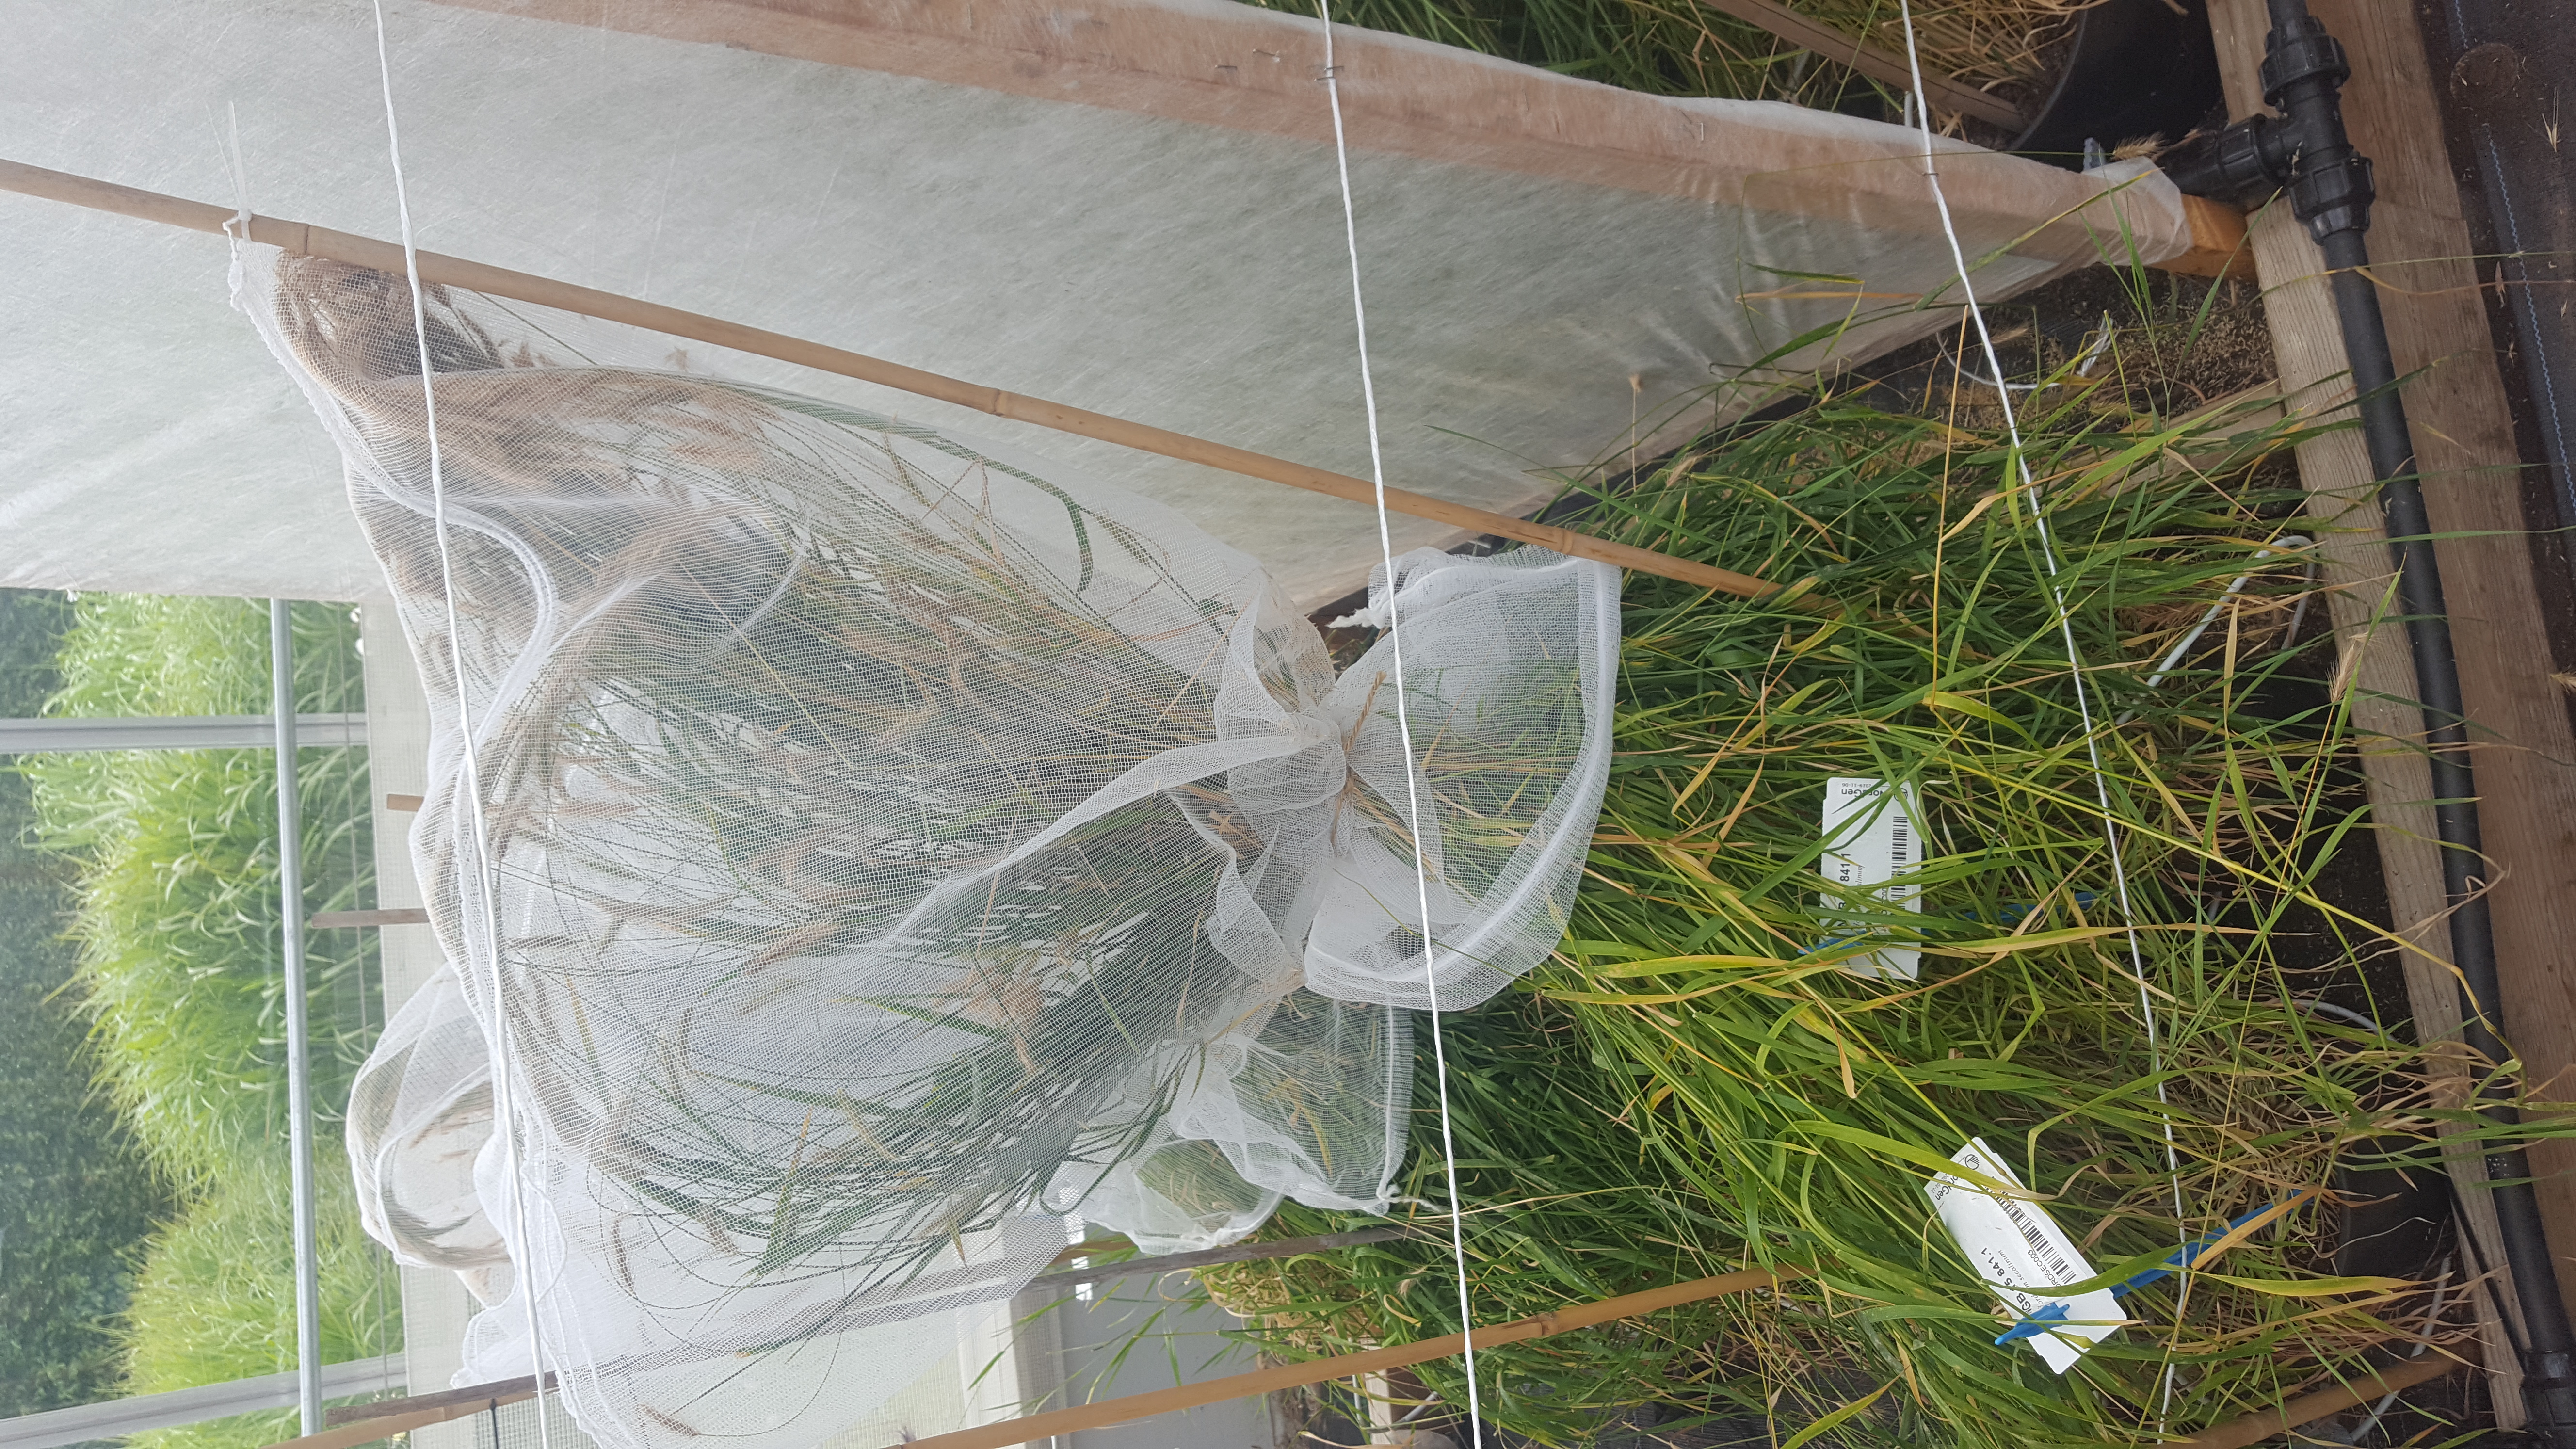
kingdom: Plantae
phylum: Tracheophyta
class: Liliopsida
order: Poales
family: Poaceae
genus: Hordeum
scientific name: Hordeum secalinum
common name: Meadow barley
